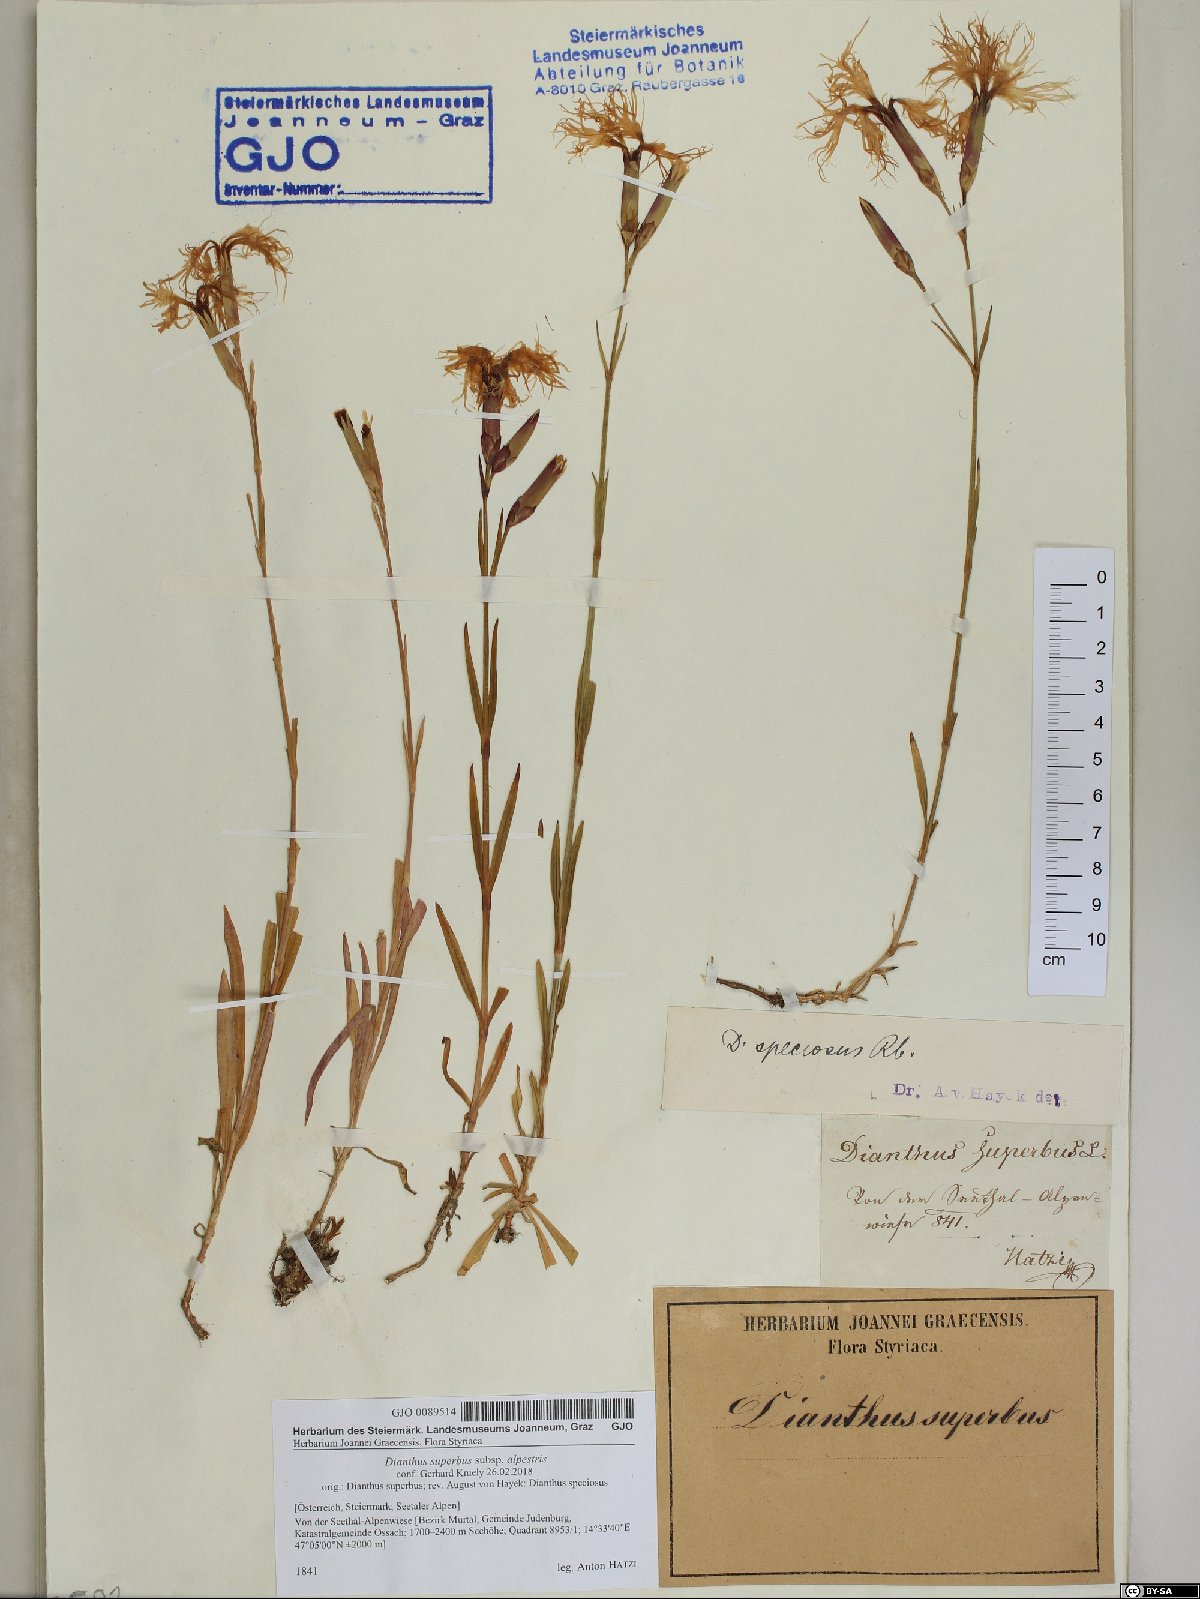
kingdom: Plantae
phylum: Tracheophyta
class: Magnoliopsida
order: Caryophyllales
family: Caryophyllaceae
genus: Dianthus
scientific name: Dianthus superbus
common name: Fringed pink
